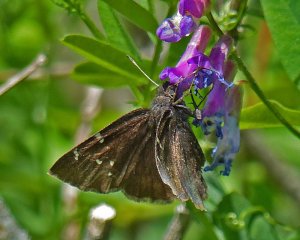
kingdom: Animalia
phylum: Arthropoda
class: Insecta
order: Lepidoptera
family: Hesperiidae
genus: Autochton
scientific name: Autochton
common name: Northern Cloudywing
